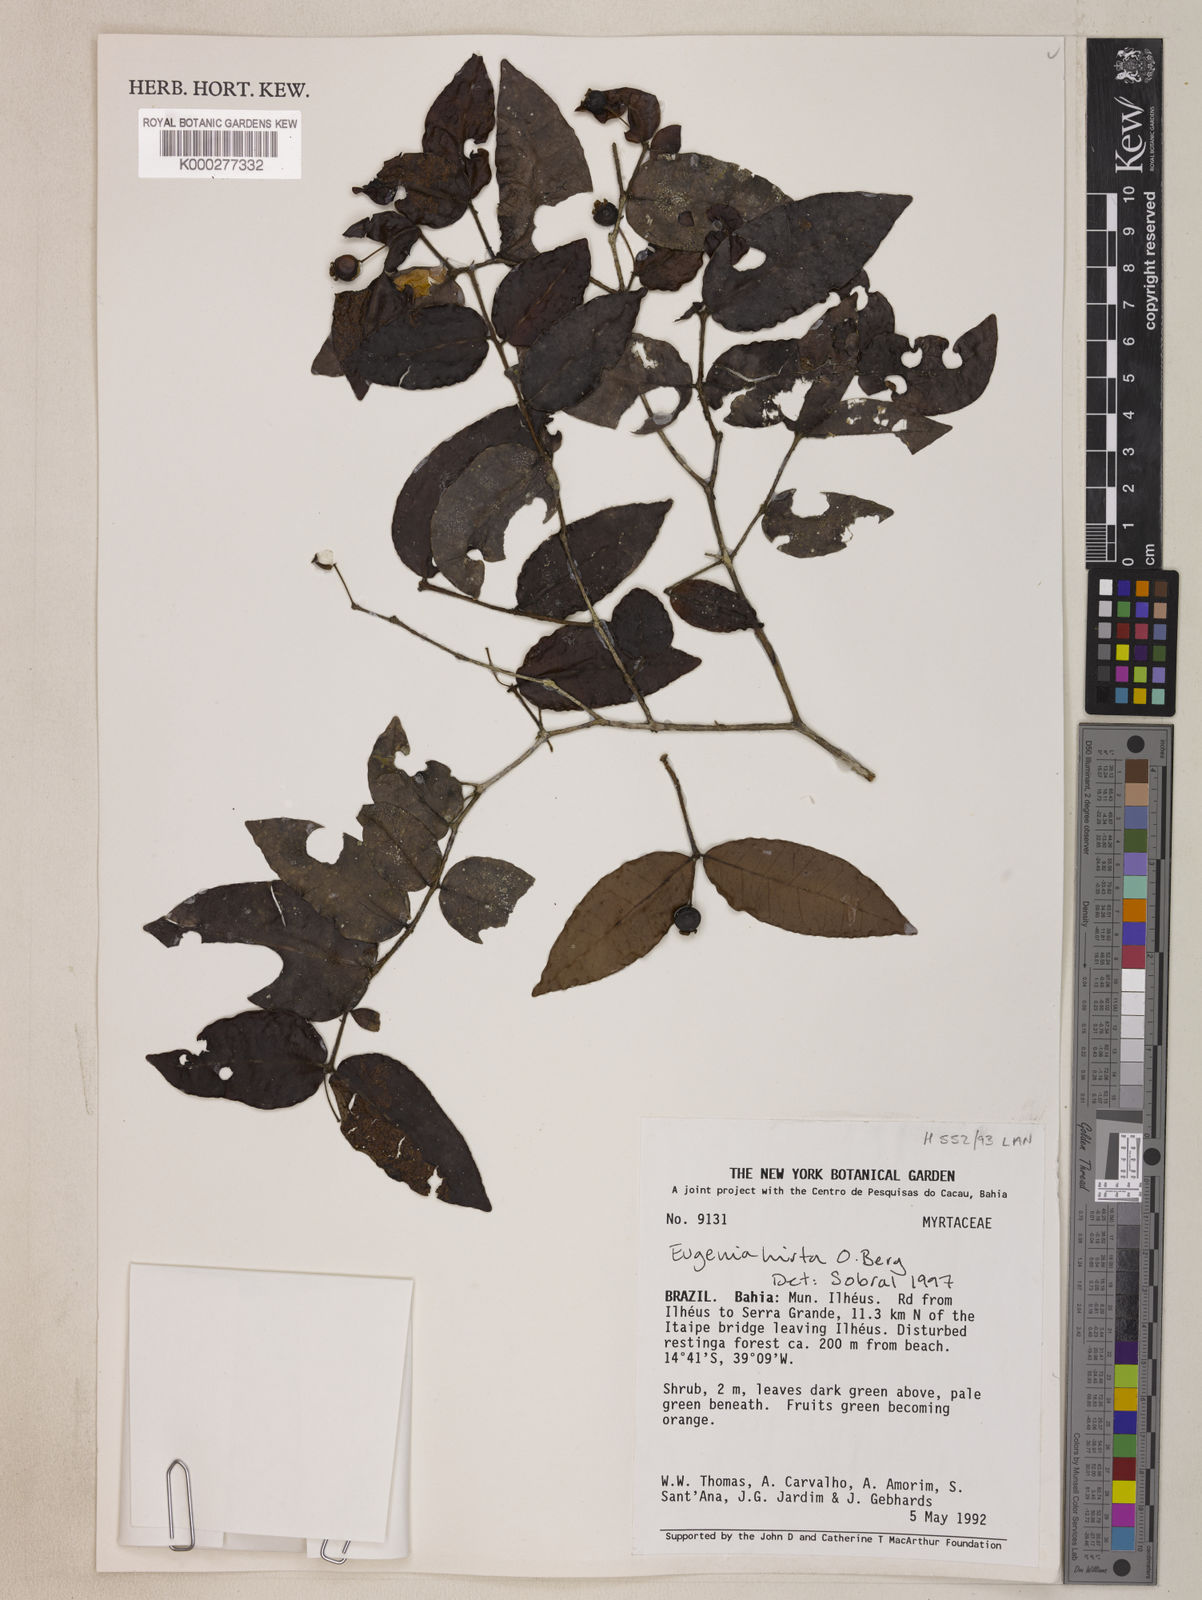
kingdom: Plantae
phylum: Tracheophyta
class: Magnoliopsida
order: Myrtales
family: Myrtaceae
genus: Eugenia
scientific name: Eugenia hirta
